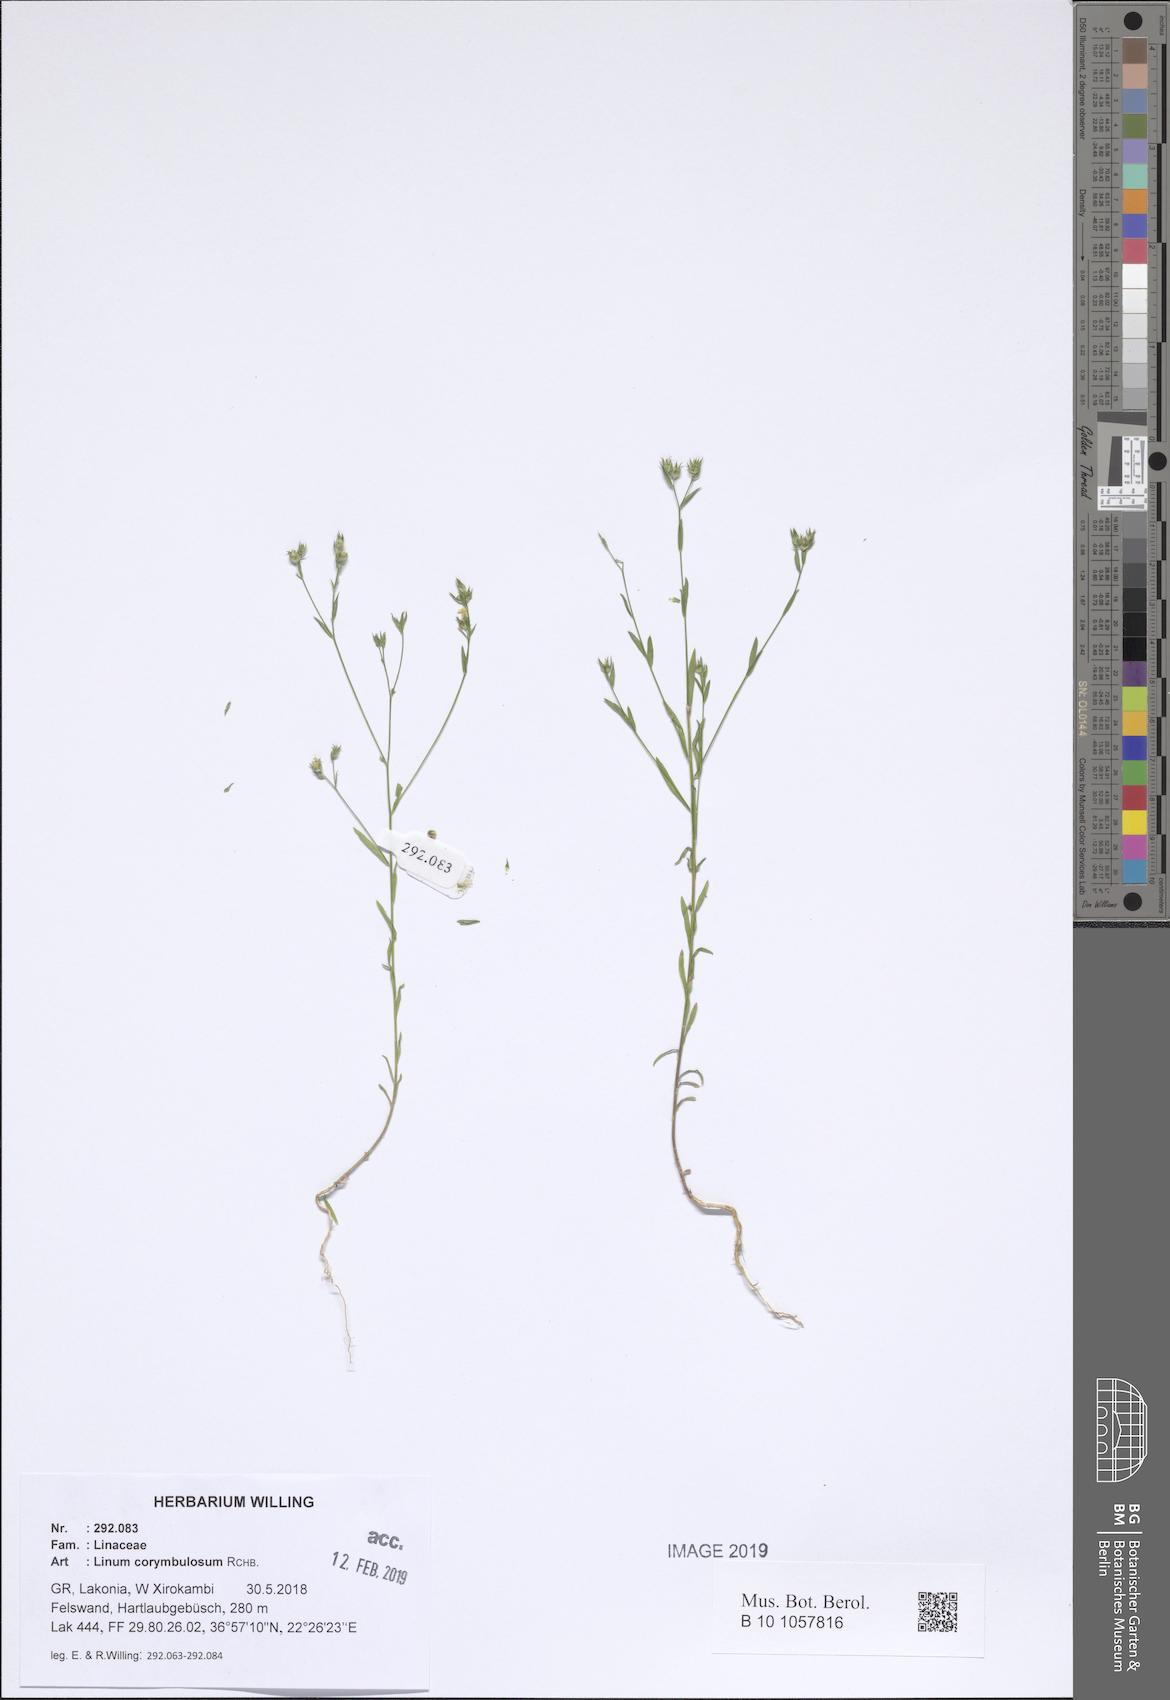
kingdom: Plantae
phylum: Tracheophyta
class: Magnoliopsida
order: Malpighiales
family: Linaceae
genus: Linum
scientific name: Linum corymbulosum
